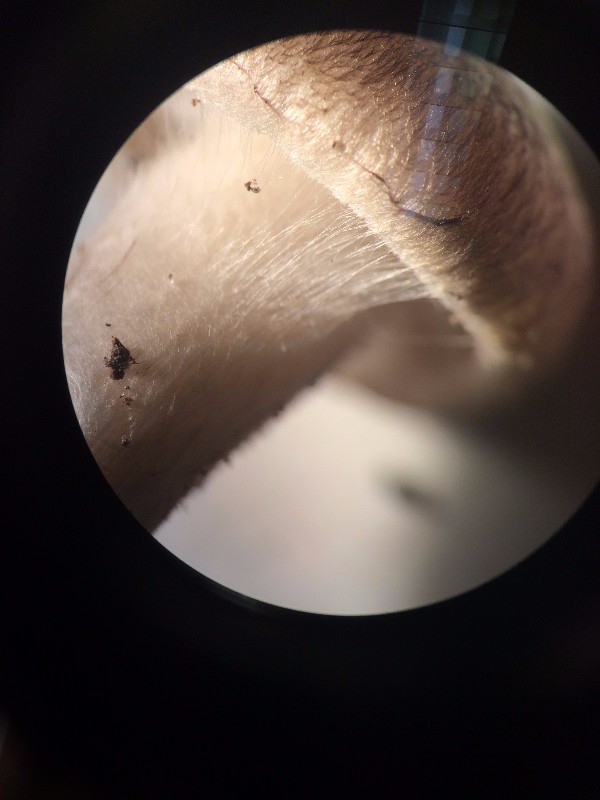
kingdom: Fungi
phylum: Basidiomycota
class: Agaricomycetes
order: Agaricales
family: Tricholomataceae
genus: Tricholoma
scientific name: Tricholoma scalpturatum
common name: gulplettet ridderhat
